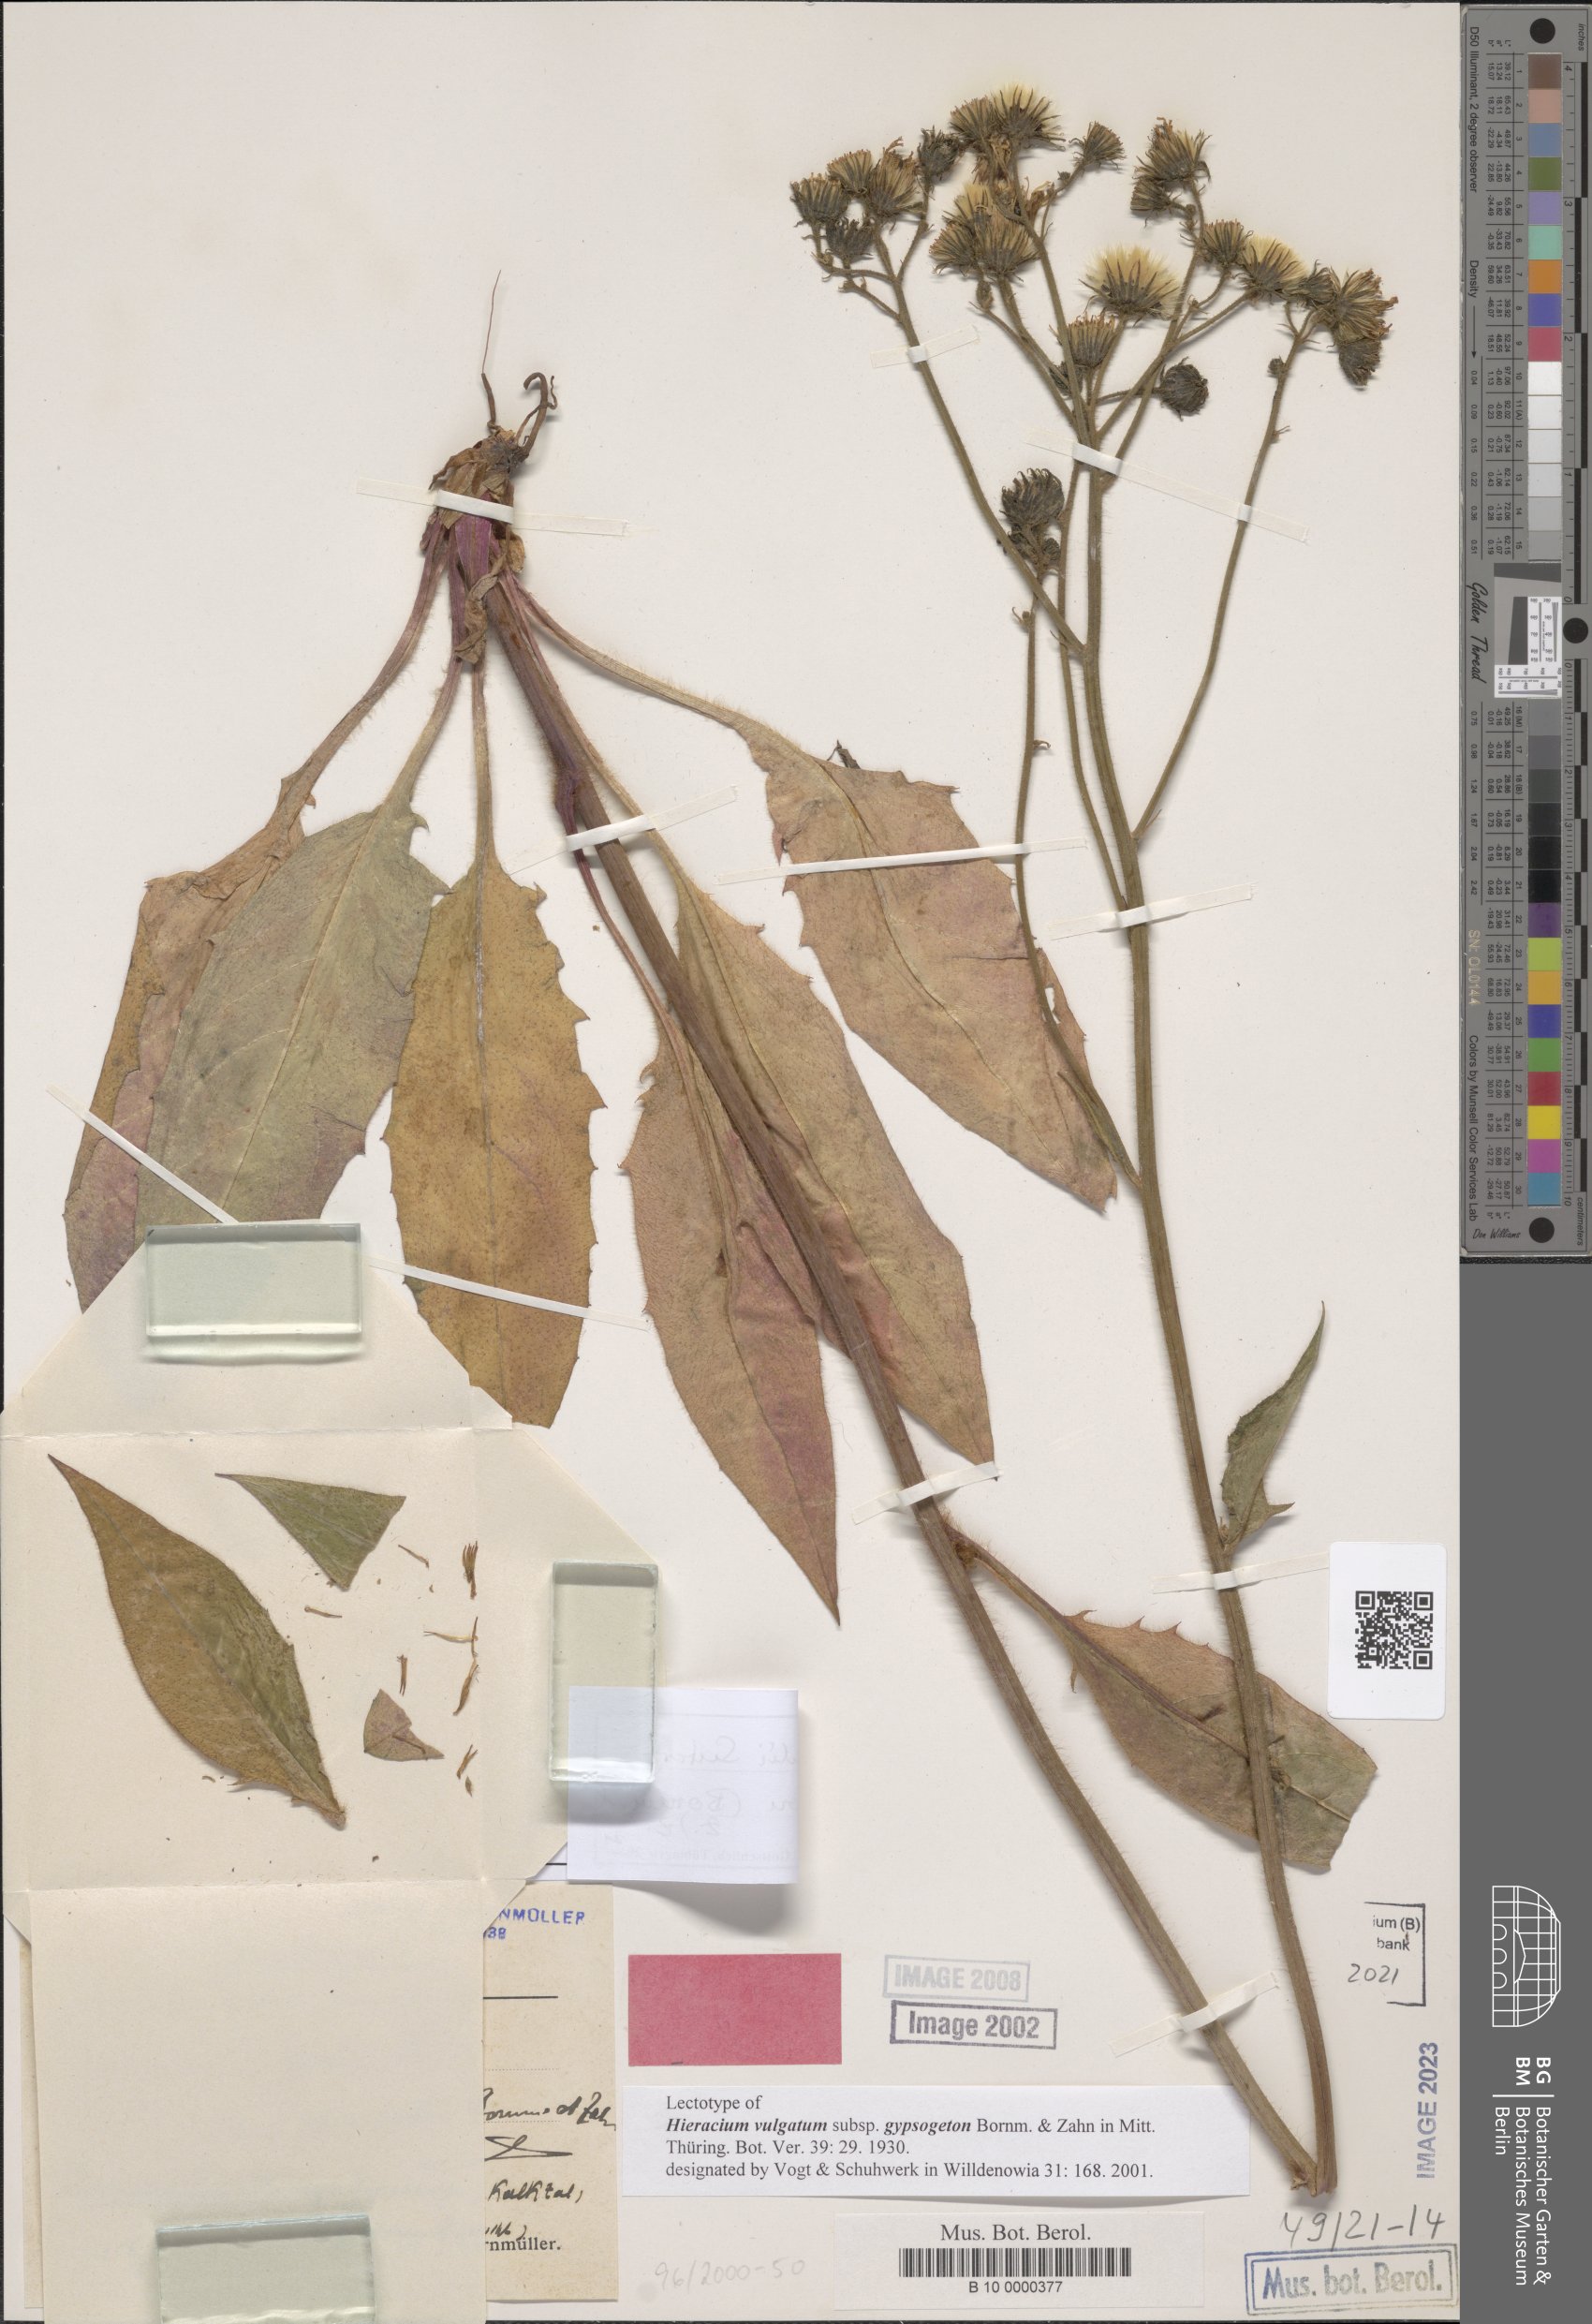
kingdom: Plantae
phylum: Tracheophyta
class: Magnoliopsida
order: Asterales
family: Asteraceae
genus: Hieracium
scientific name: Hieracium vulgatum
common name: Common hawkweed
